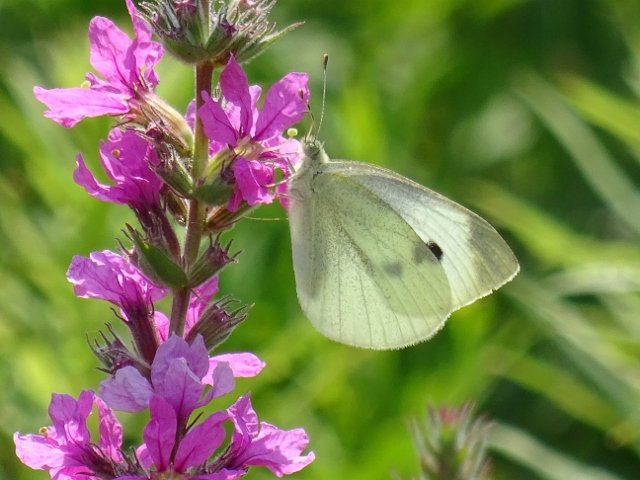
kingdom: Animalia
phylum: Arthropoda
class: Insecta
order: Lepidoptera
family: Pieridae
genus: Pieris
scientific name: Pieris rapae
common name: Cabbage White
